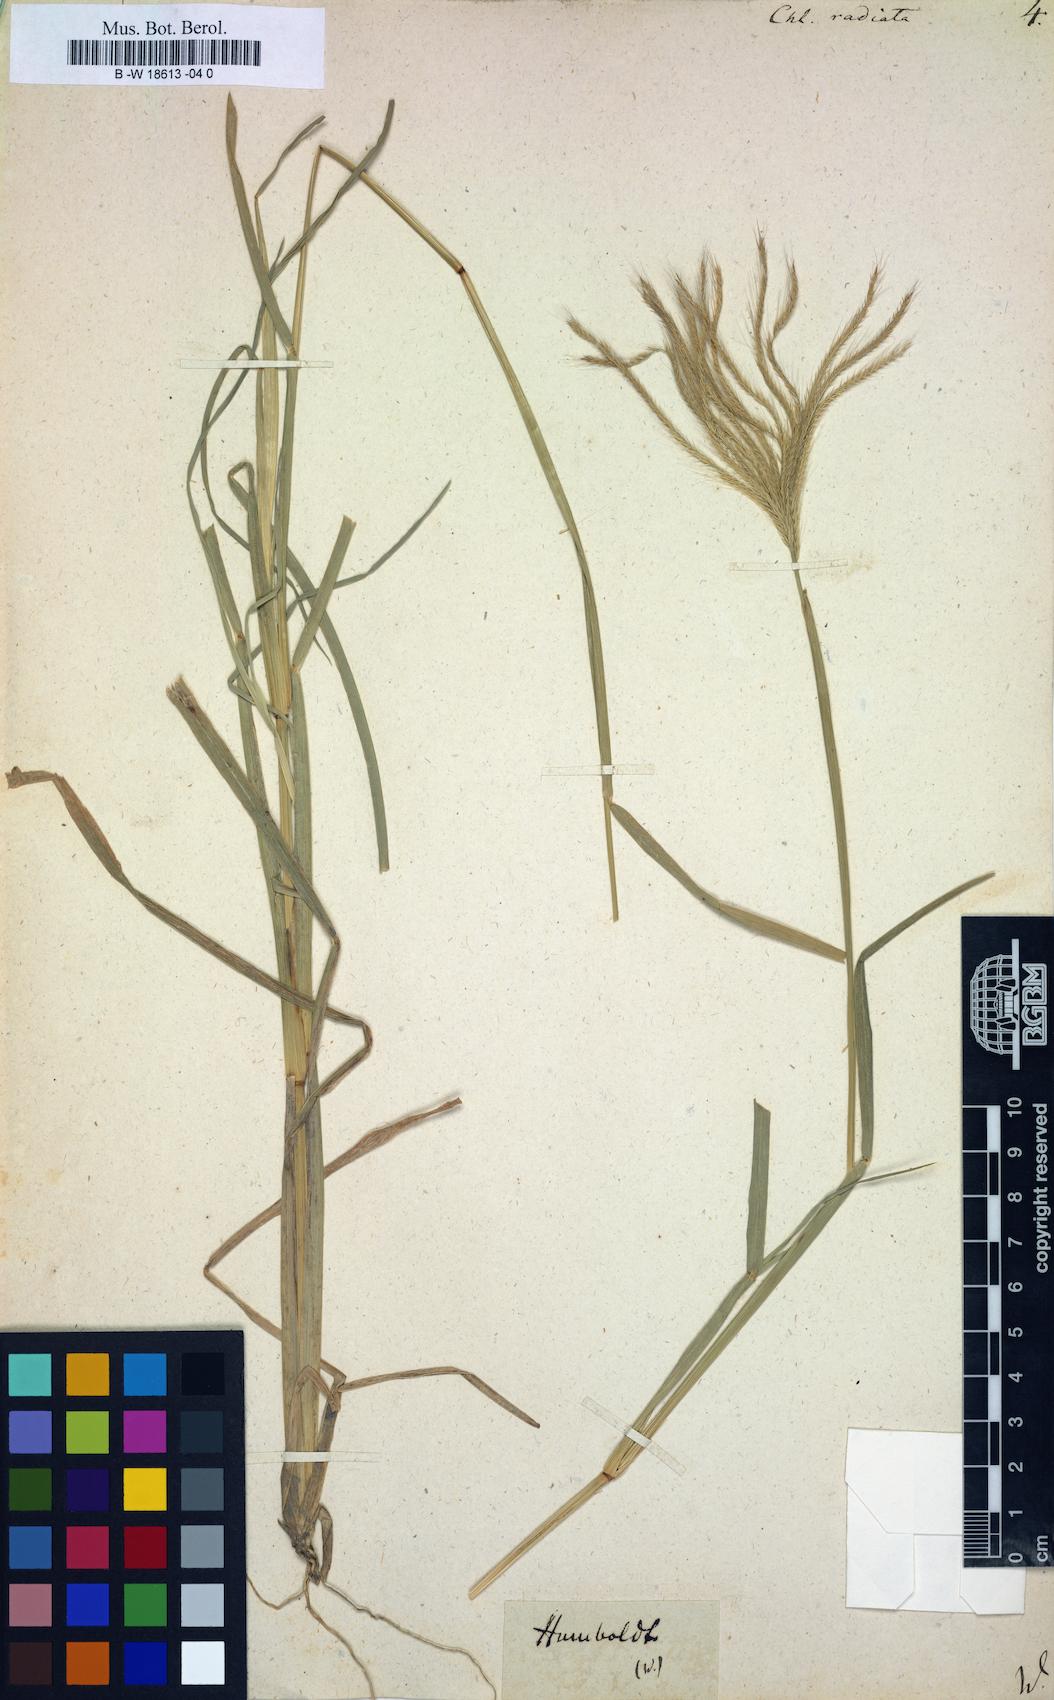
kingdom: Plantae
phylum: Tracheophyta
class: Liliopsida
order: Poales
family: Poaceae
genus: Chloris
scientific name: Chloris radiata
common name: Radiate fingergrass
